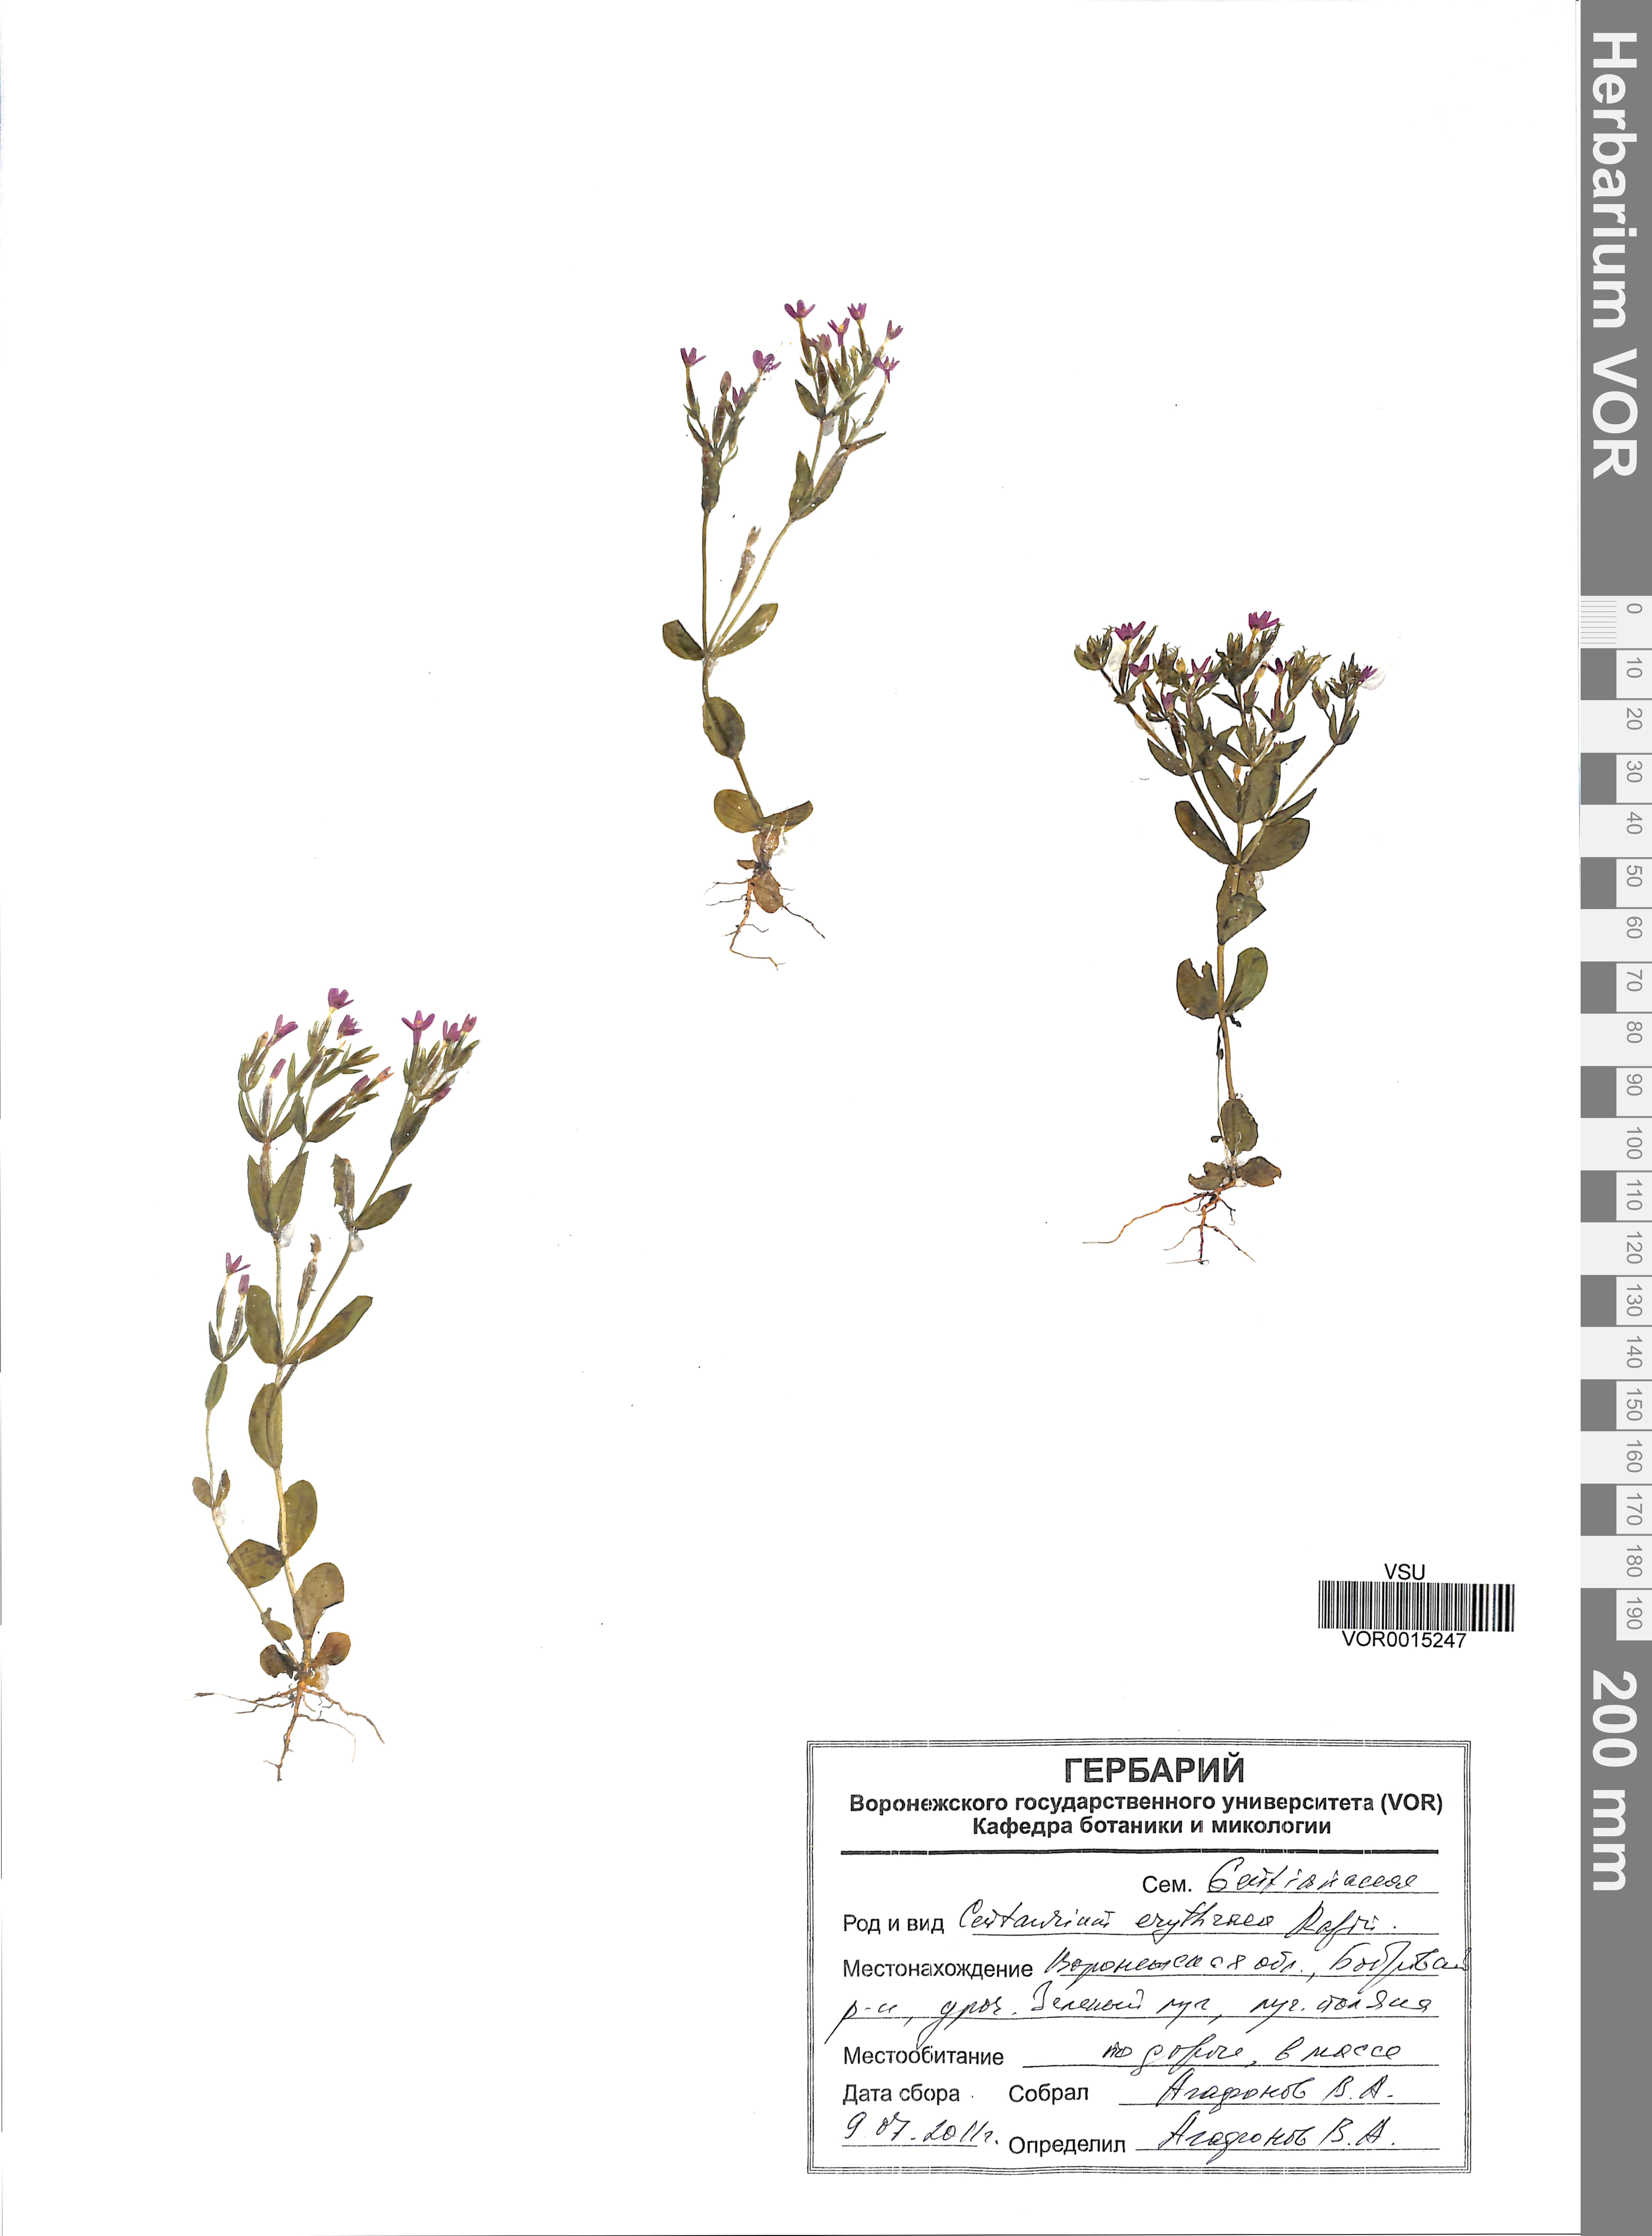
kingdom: Plantae
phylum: Tracheophyta
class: Magnoliopsida
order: Gentianales
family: Gentianaceae
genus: Centaurium
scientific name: Centaurium erythraea
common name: Common centaury
